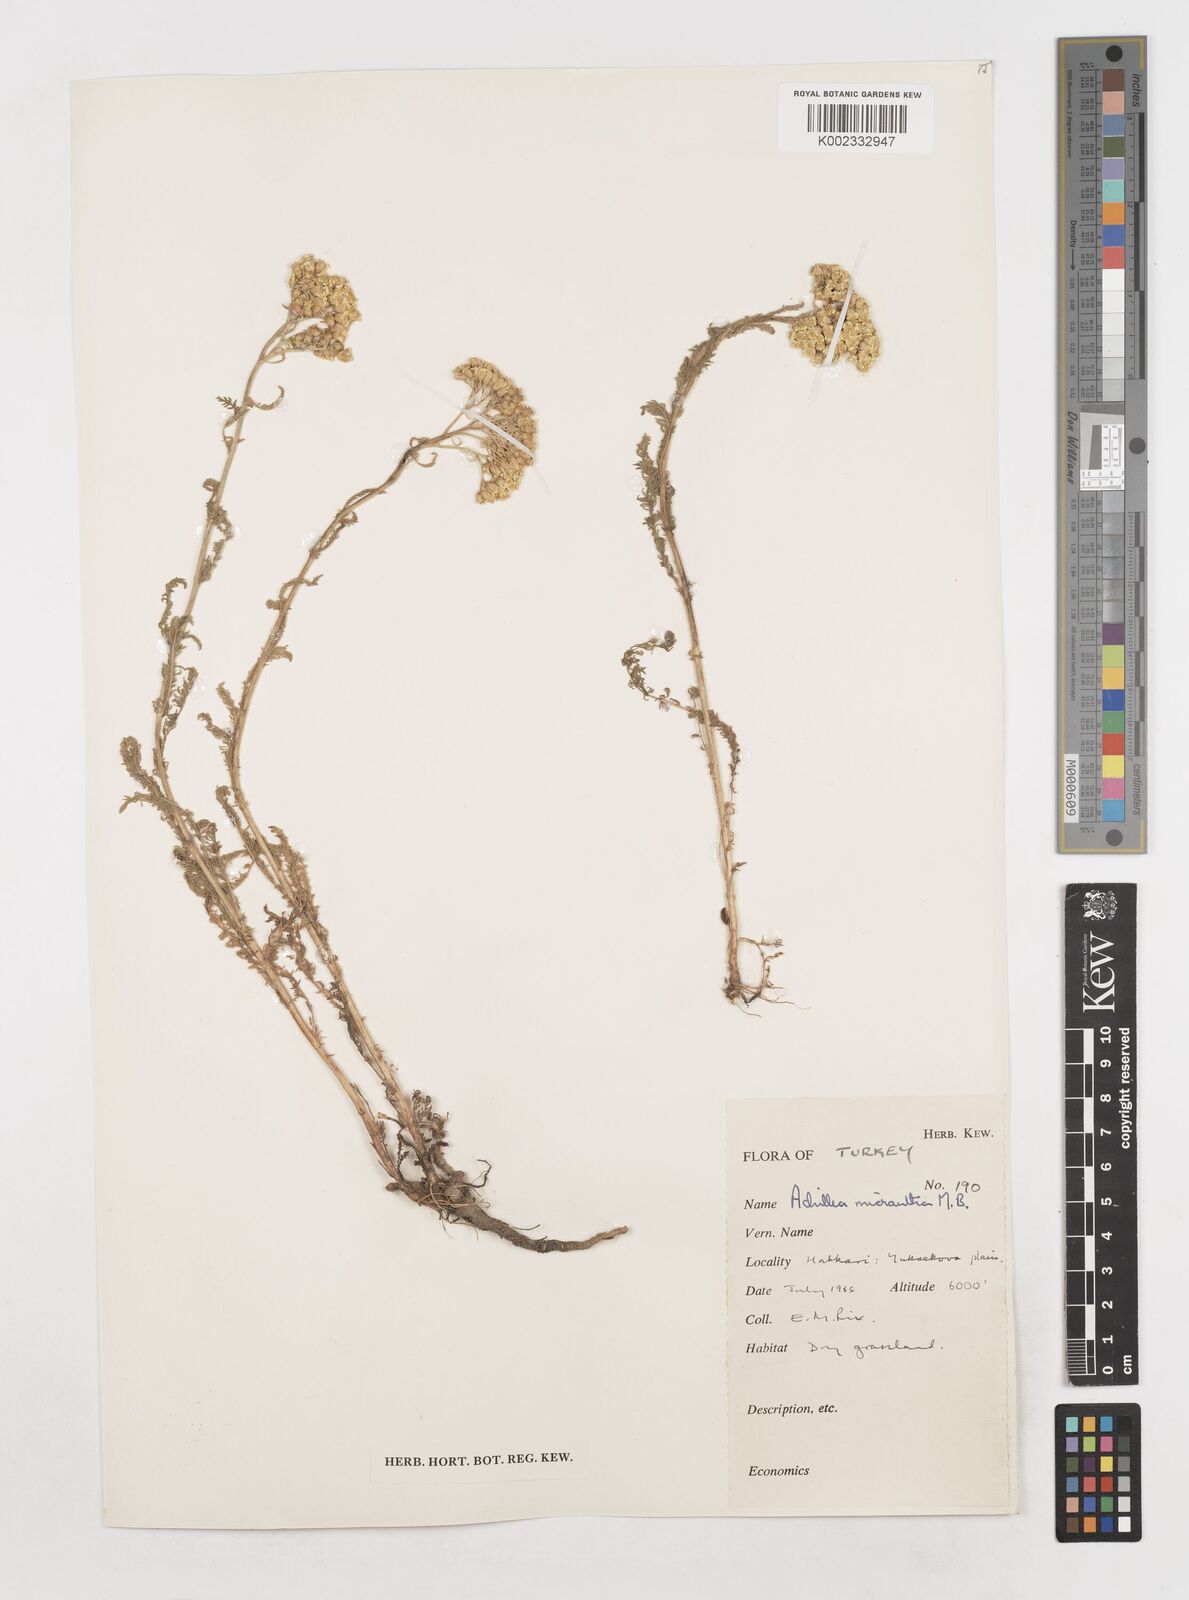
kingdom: Plantae
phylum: Tracheophyta
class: Magnoliopsida
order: Asterales
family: Asteraceae
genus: Achillea
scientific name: Achillea arabica
